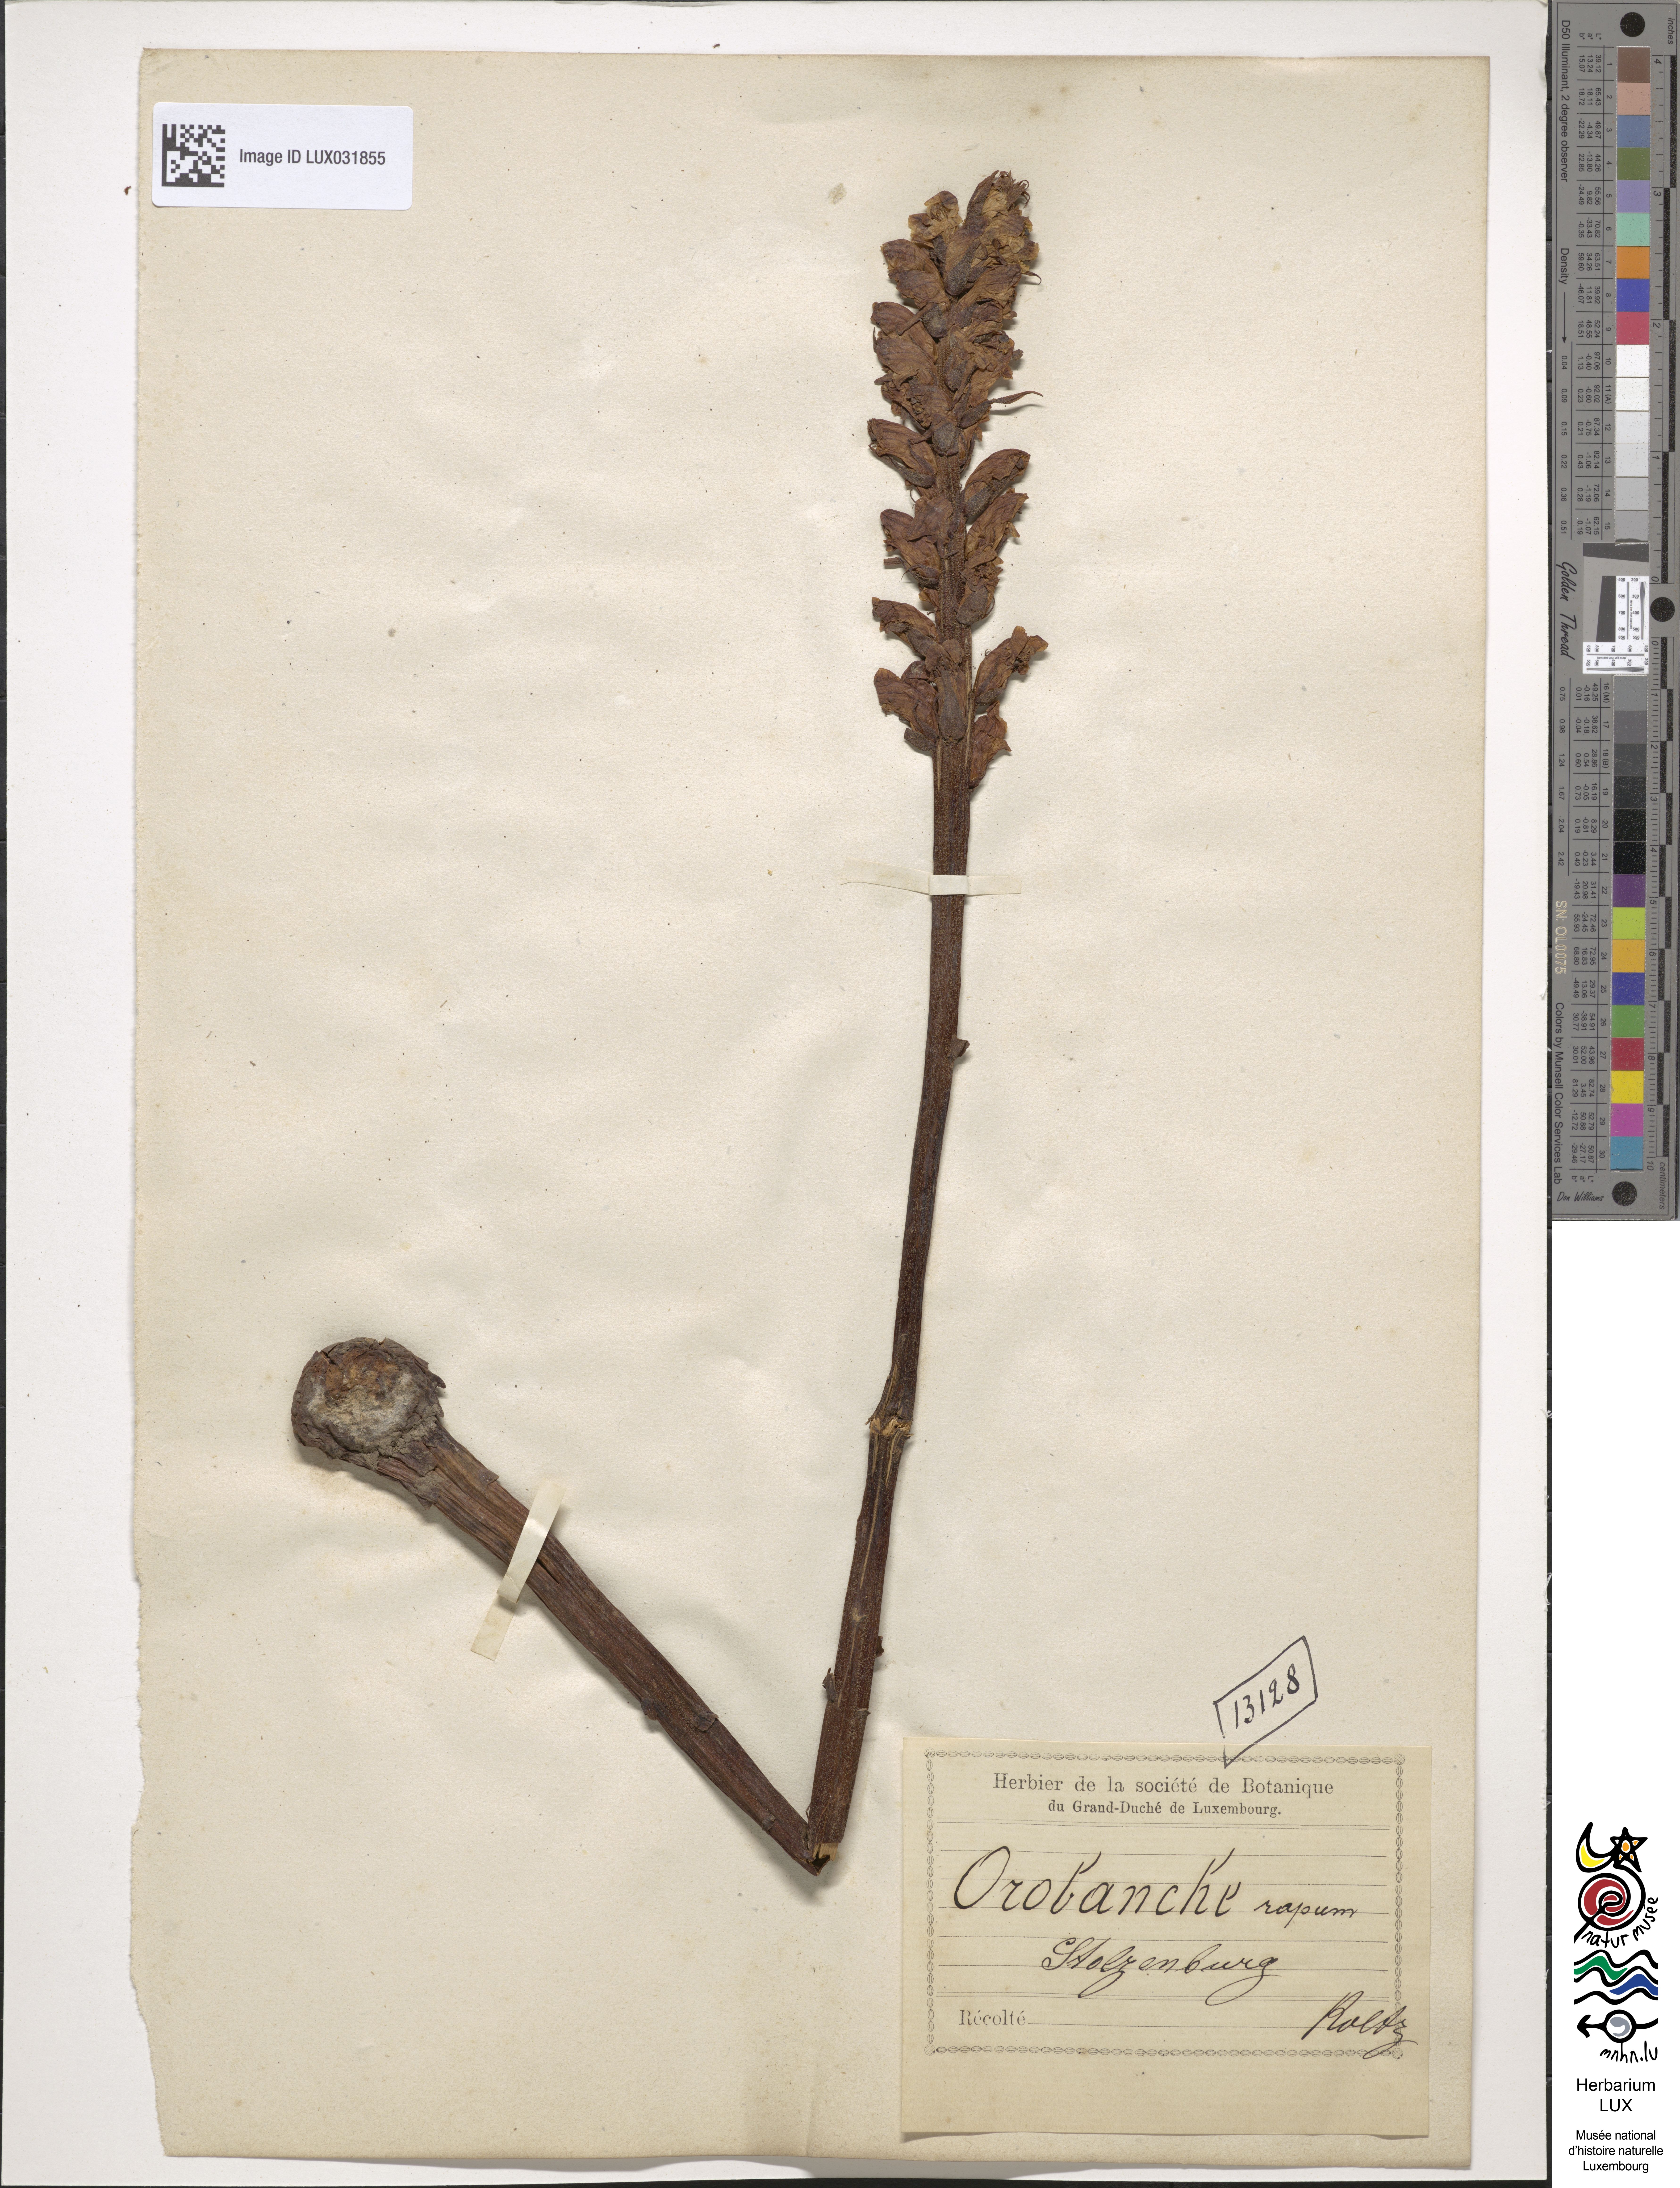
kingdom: Plantae
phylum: Tracheophyta
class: Magnoliopsida
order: Lamiales
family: Orobanchaceae
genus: Orobanche
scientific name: Orobanche rapum-genistae
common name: Greater broomrape
